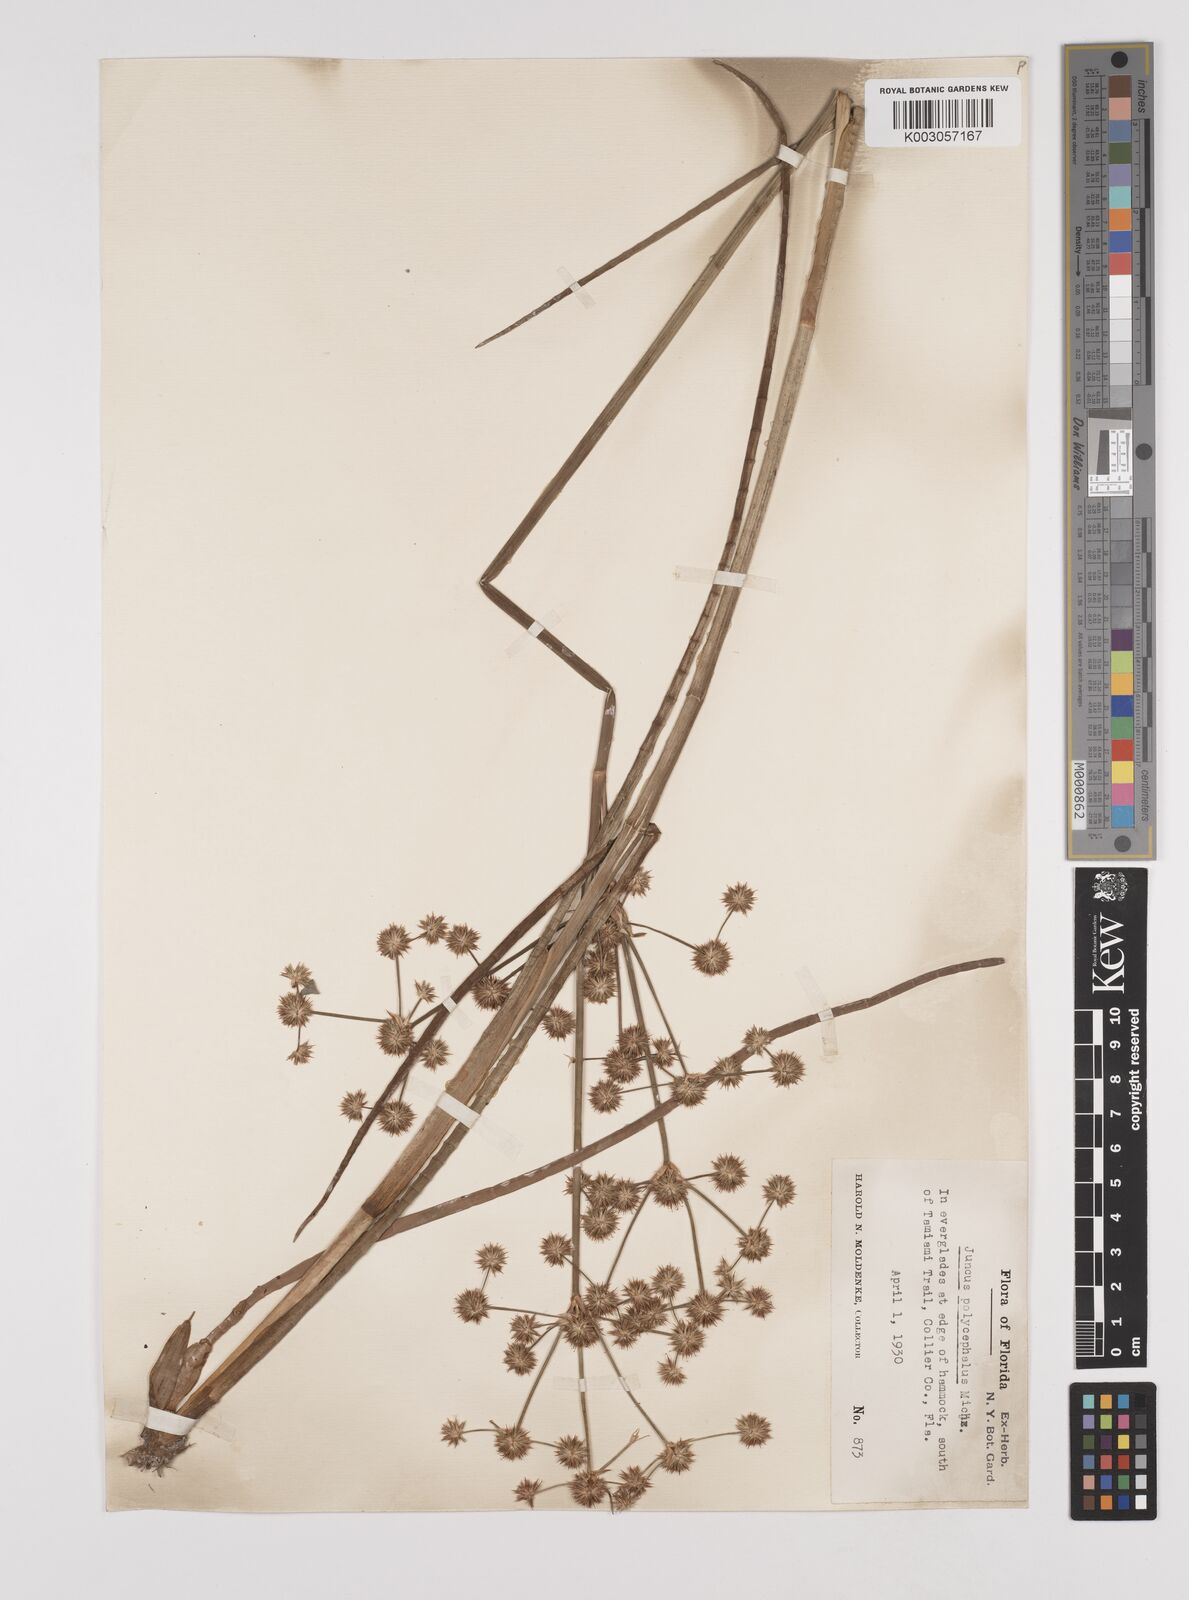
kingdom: Plantae
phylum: Tracheophyta
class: Liliopsida
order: Poales
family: Juncaceae
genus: Juncus
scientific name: Juncus articulatus
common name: Jointed rush
